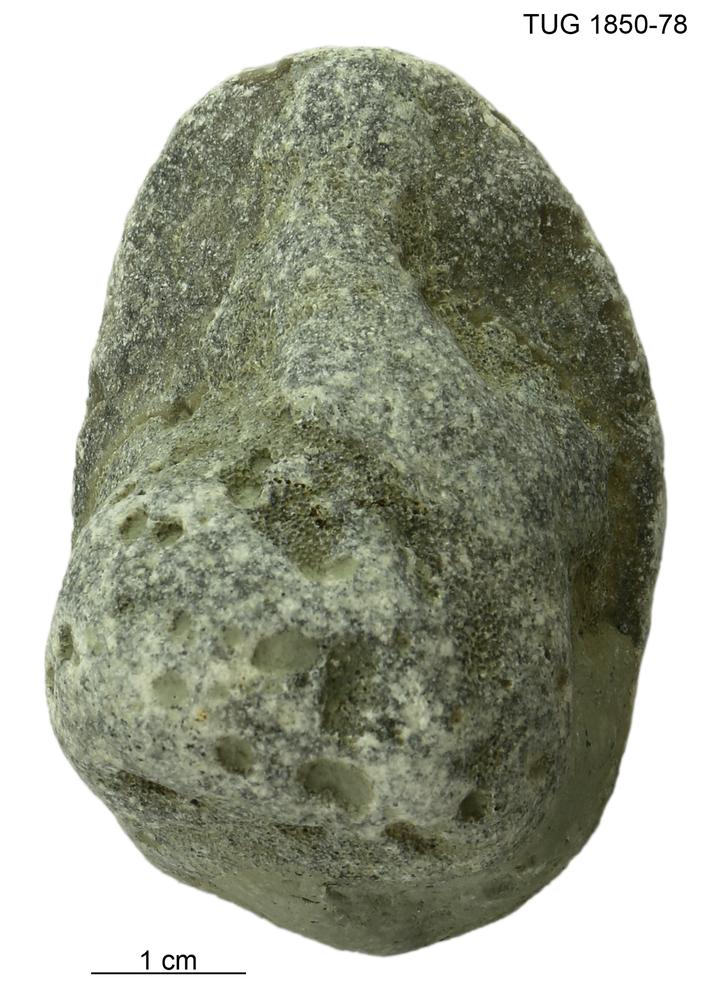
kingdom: Animalia
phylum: Porifera
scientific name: Porifera
